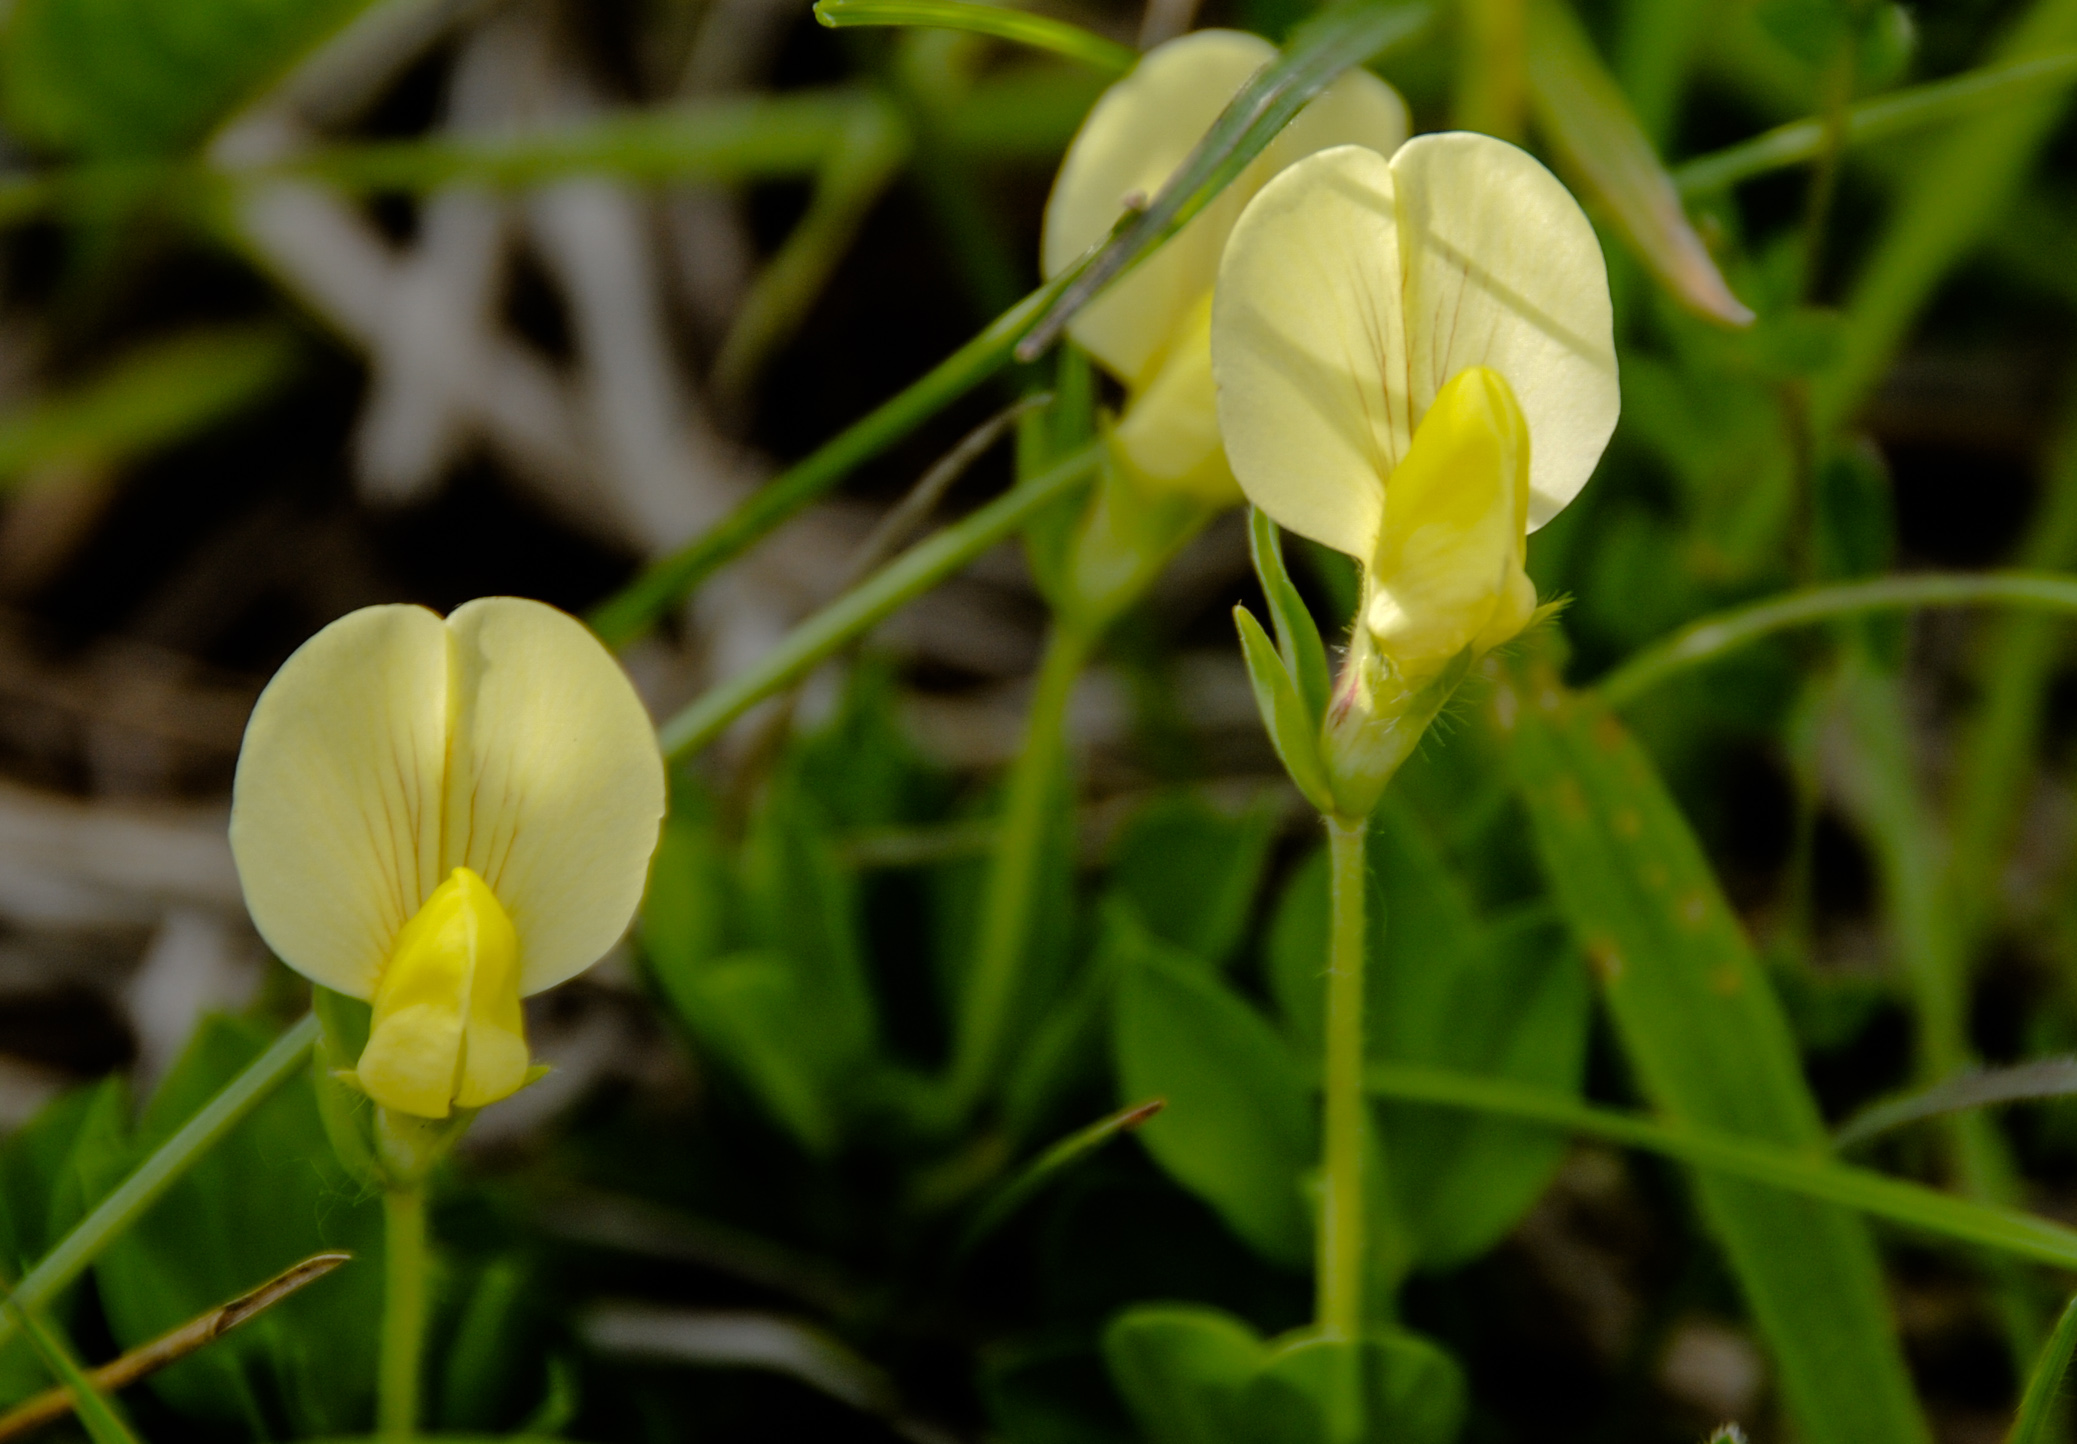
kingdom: Plantae
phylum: Tracheophyta
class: Magnoliopsida
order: Fabales
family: Fabaceae
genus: Lotus
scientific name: Lotus maritimus
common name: Dragon's-teeth
